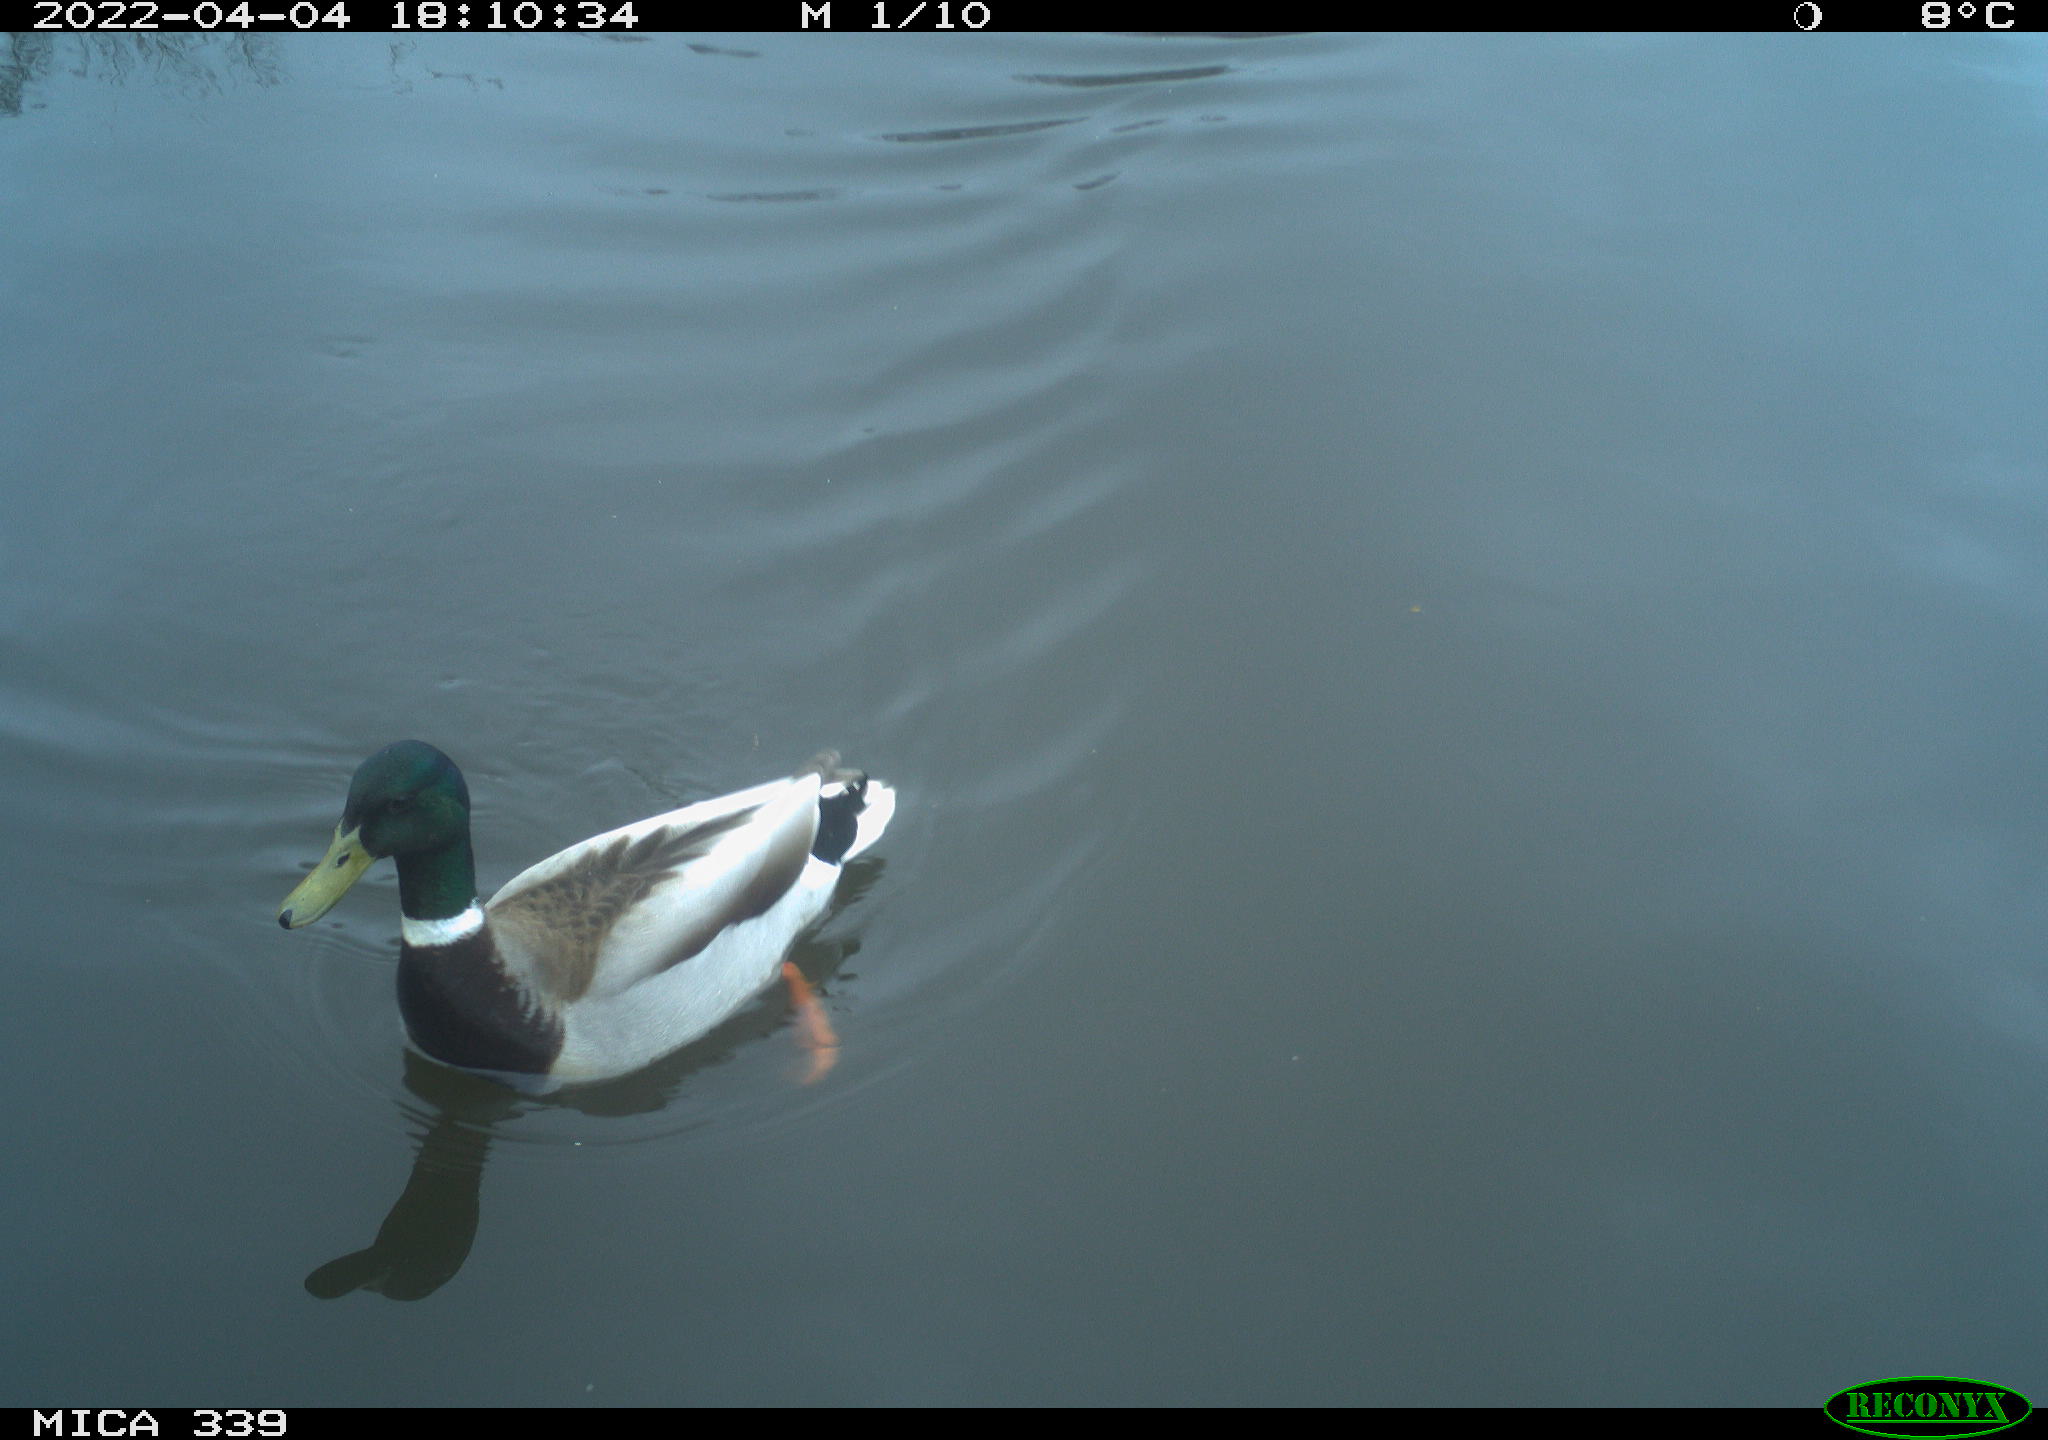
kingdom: Animalia
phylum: Chordata
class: Aves
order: Anseriformes
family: Anatidae
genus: Anas
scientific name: Anas platyrhynchos
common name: Mallard
